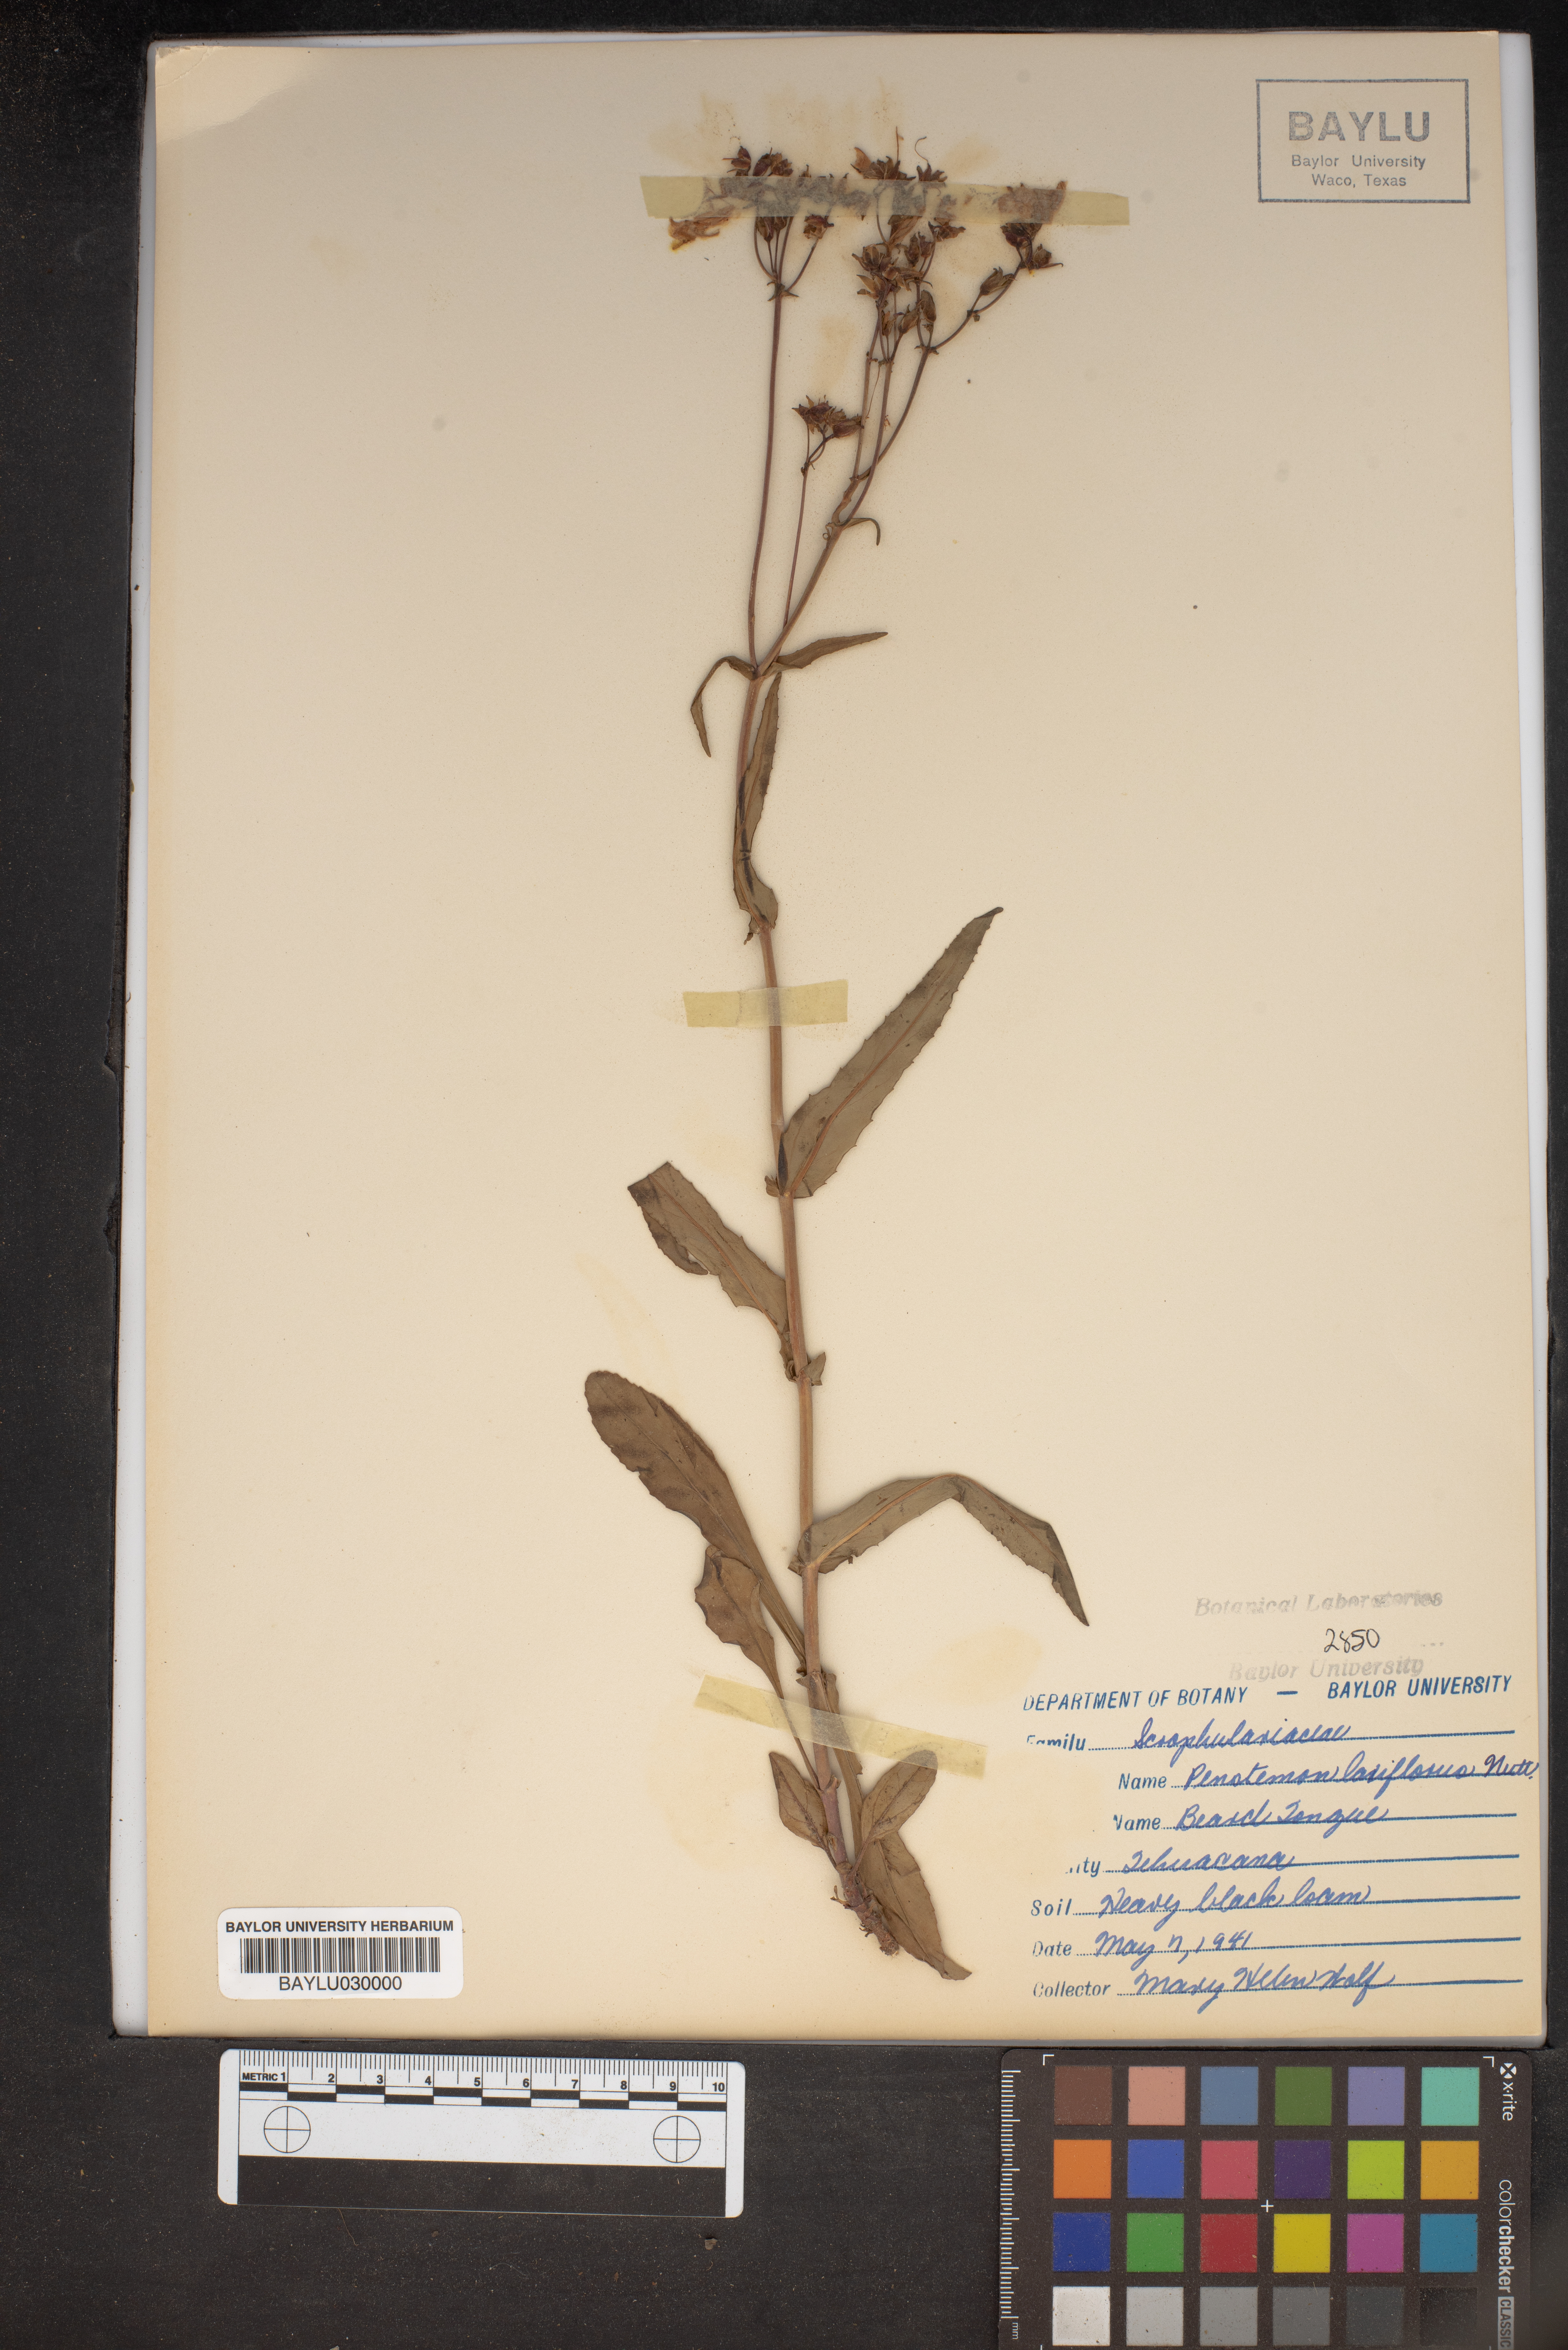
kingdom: Plantae
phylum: Tracheophyta
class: Magnoliopsida
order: Lamiales
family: Plantaginaceae
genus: Penstemon
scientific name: Penstemon laxiflorus
